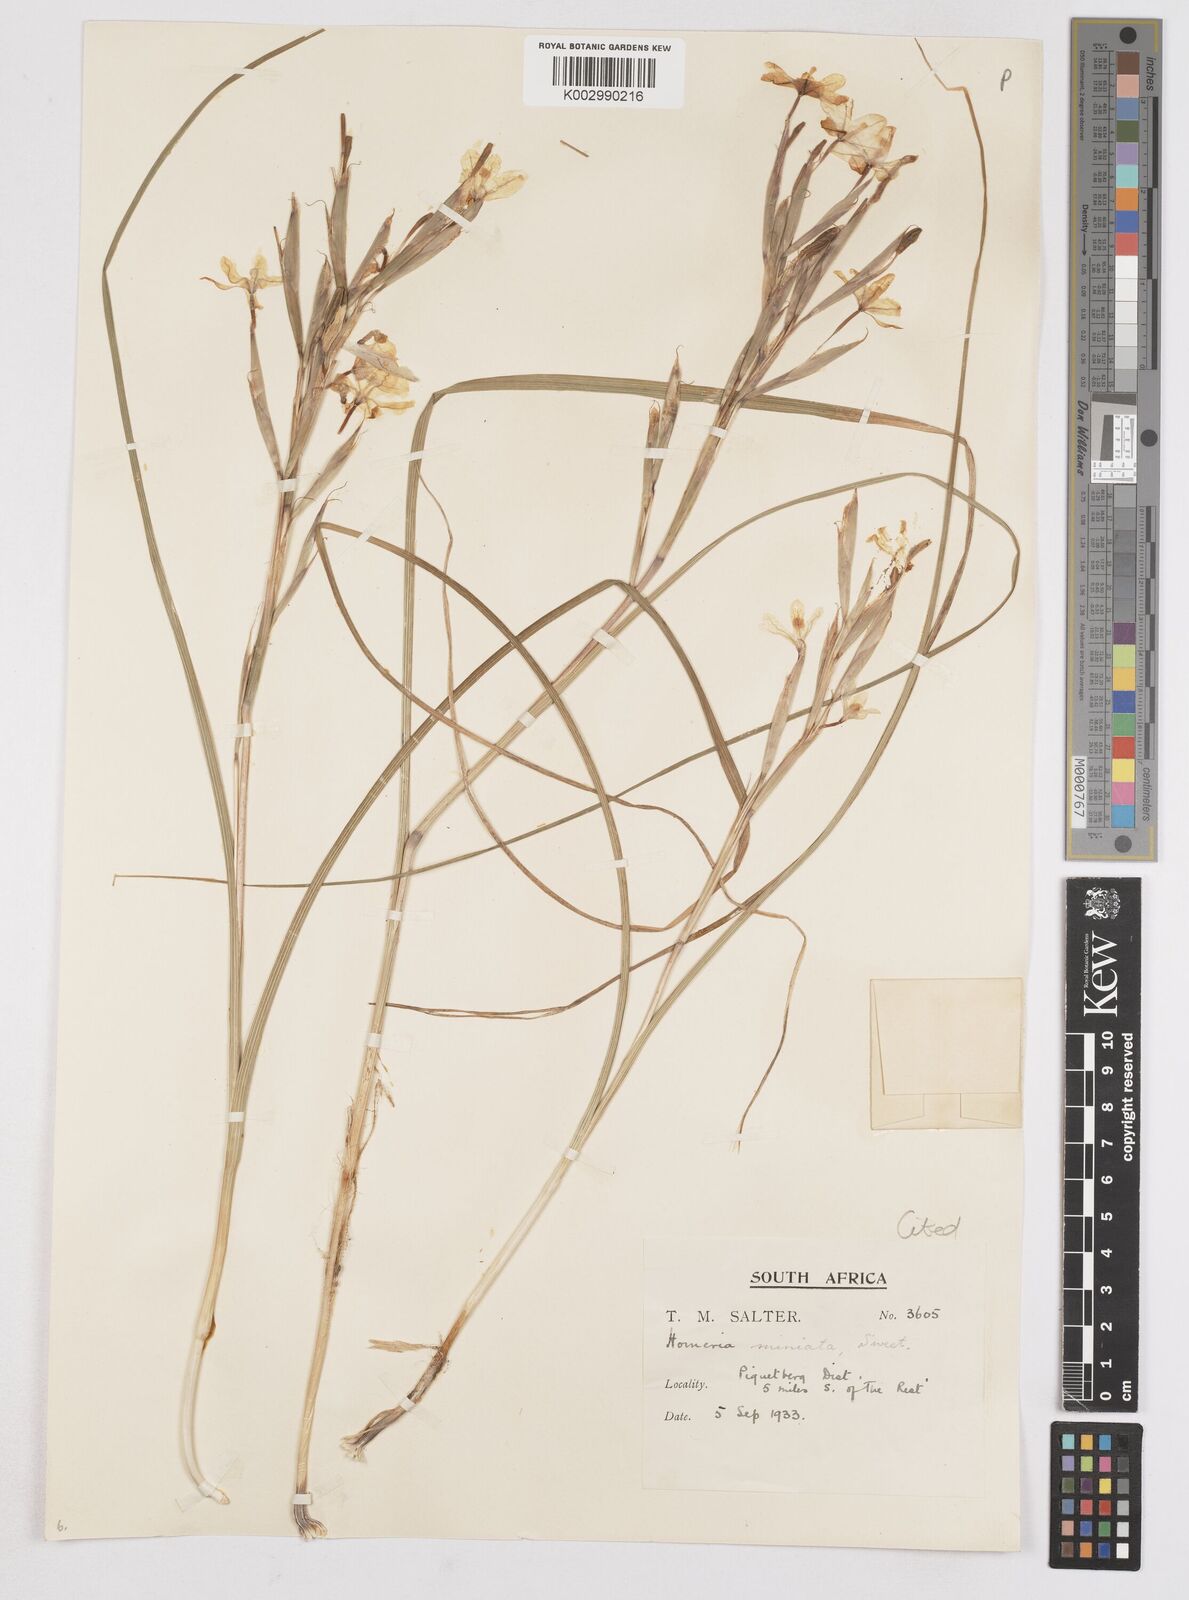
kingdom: Plantae
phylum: Tracheophyta
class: Liliopsida
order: Asparagales
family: Iridaceae
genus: Moraea
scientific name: Moraea miniata
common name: Two-leaf cape-tulip
